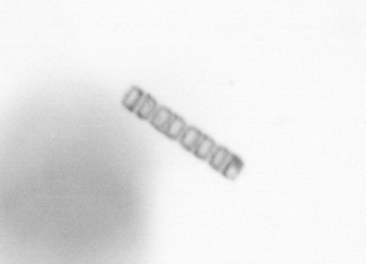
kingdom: Chromista
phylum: Ochrophyta
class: Bacillariophyceae
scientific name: Bacillariophyceae
